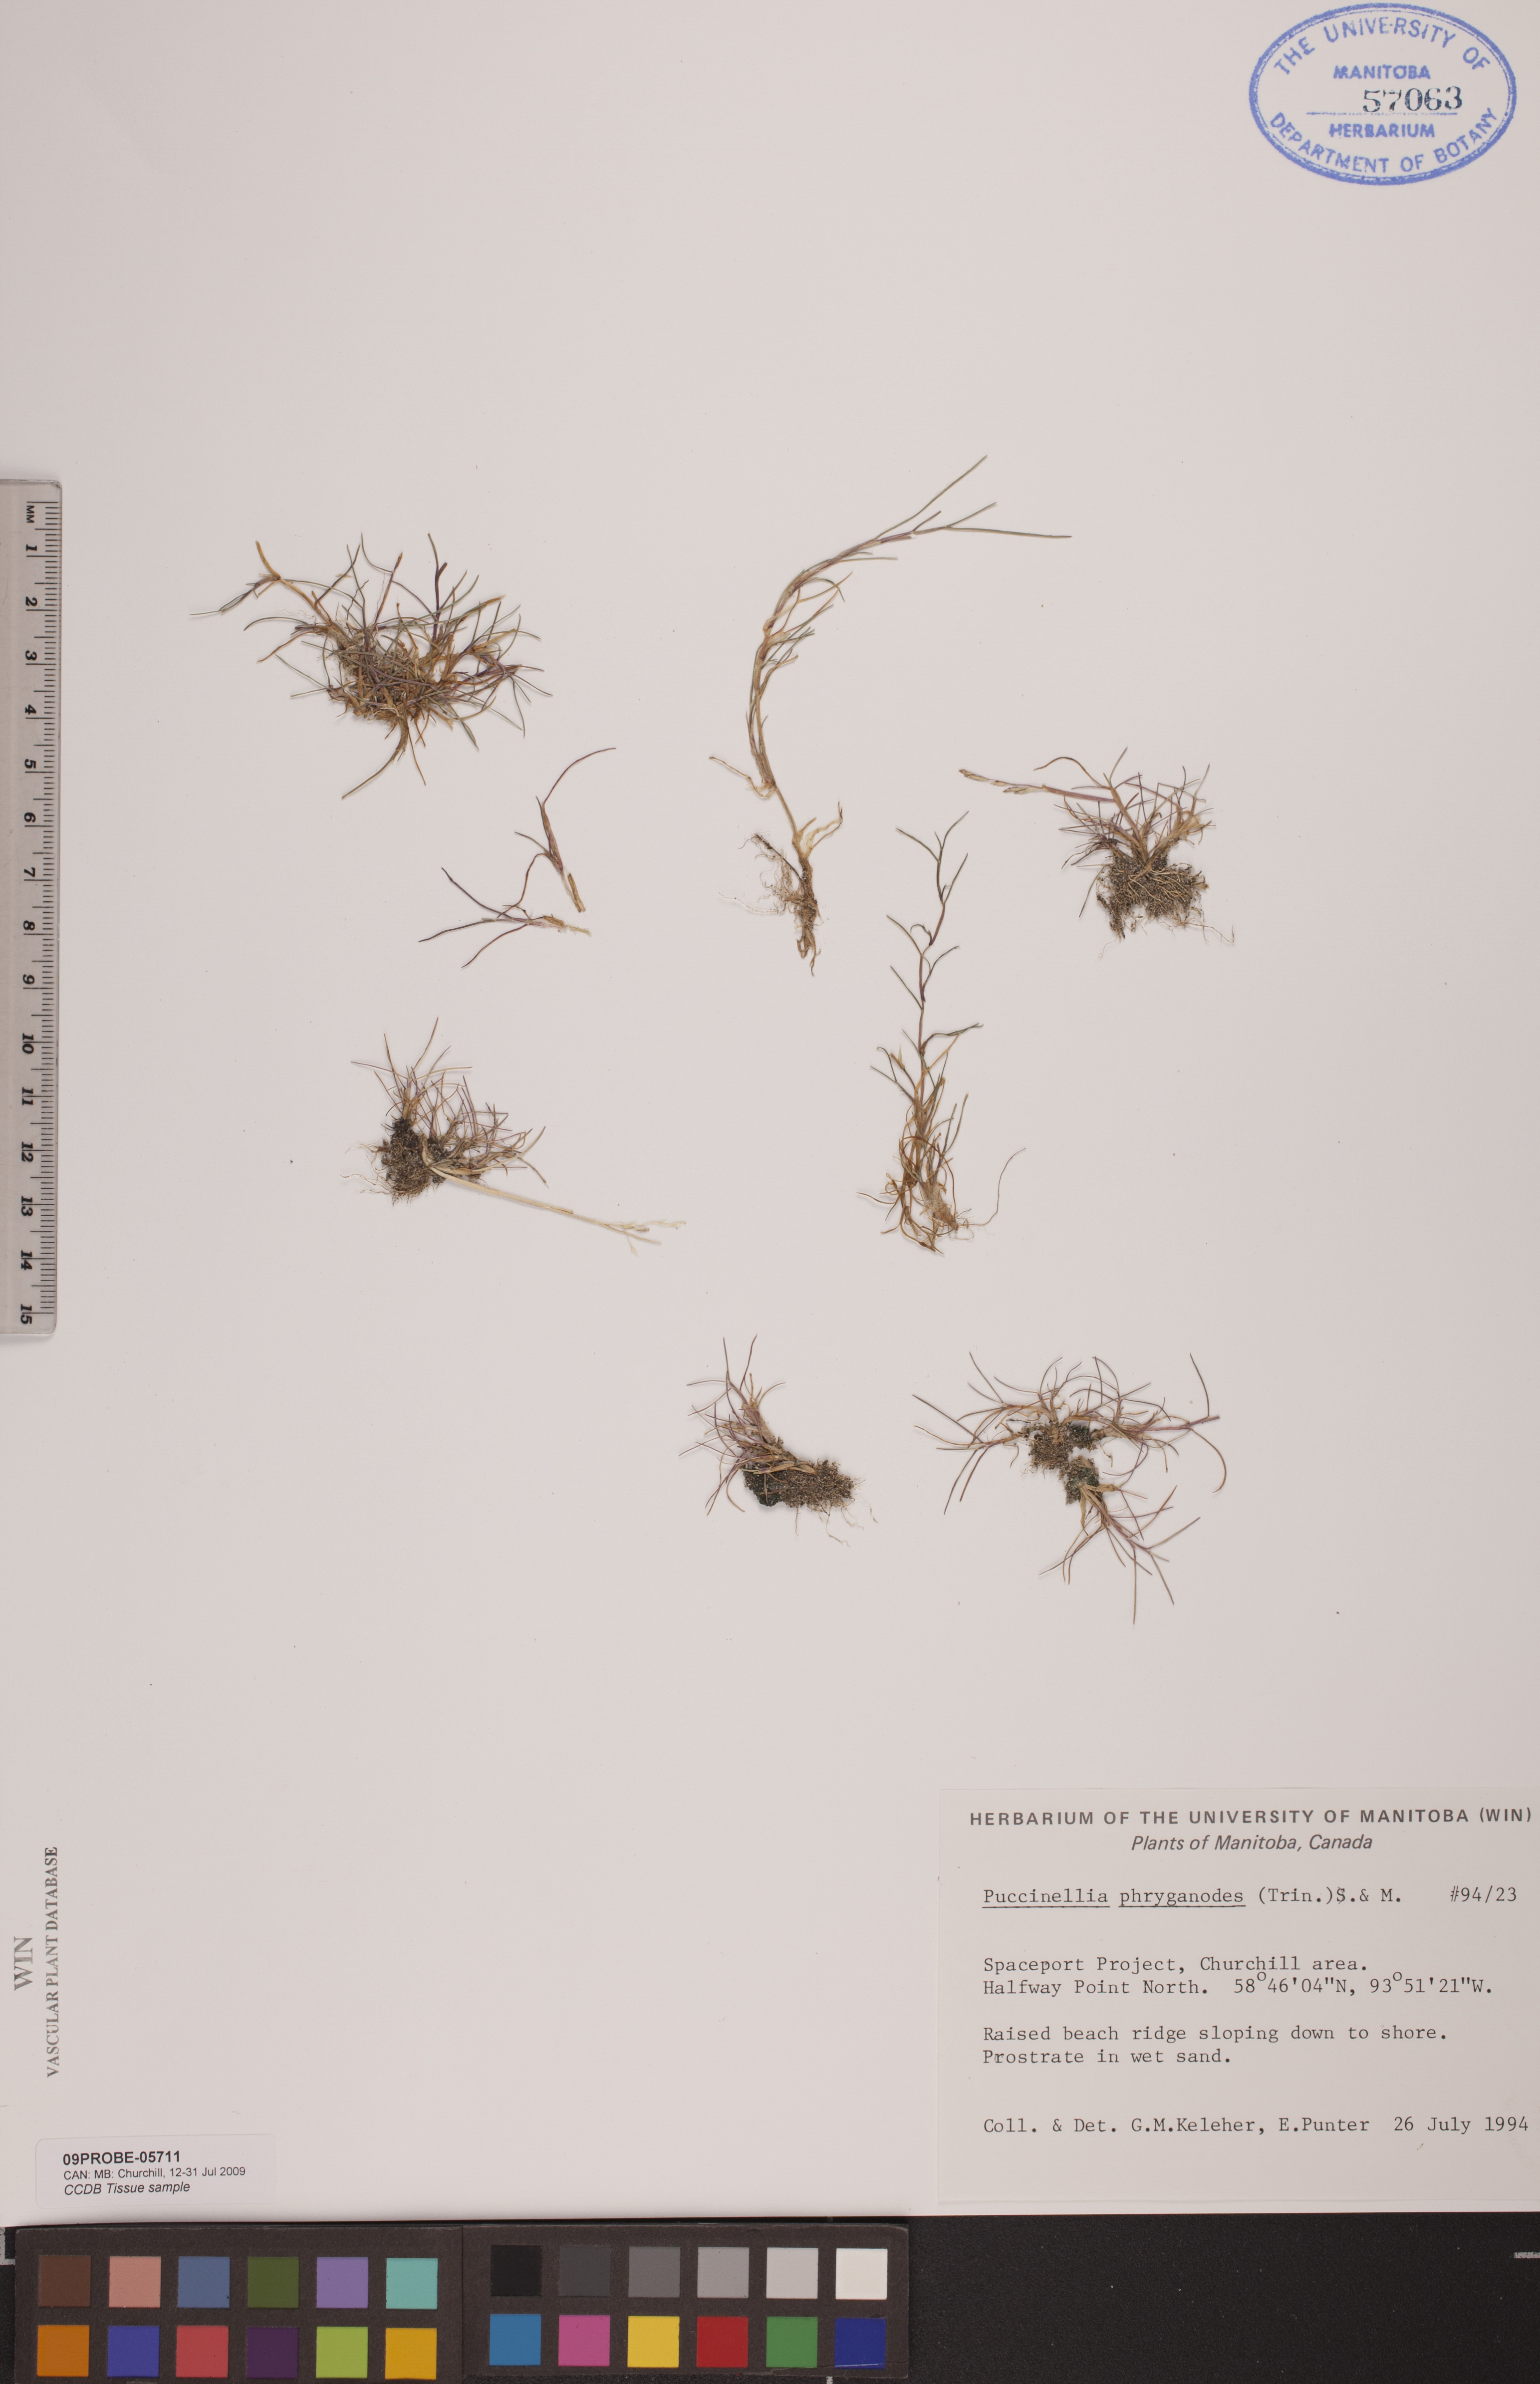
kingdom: Plantae
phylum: Tracheophyta
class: Liliopsida
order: Poales
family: Poaceae
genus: Puccinellia
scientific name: Puccinellia phryganodes
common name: Creeping alkaligrass
